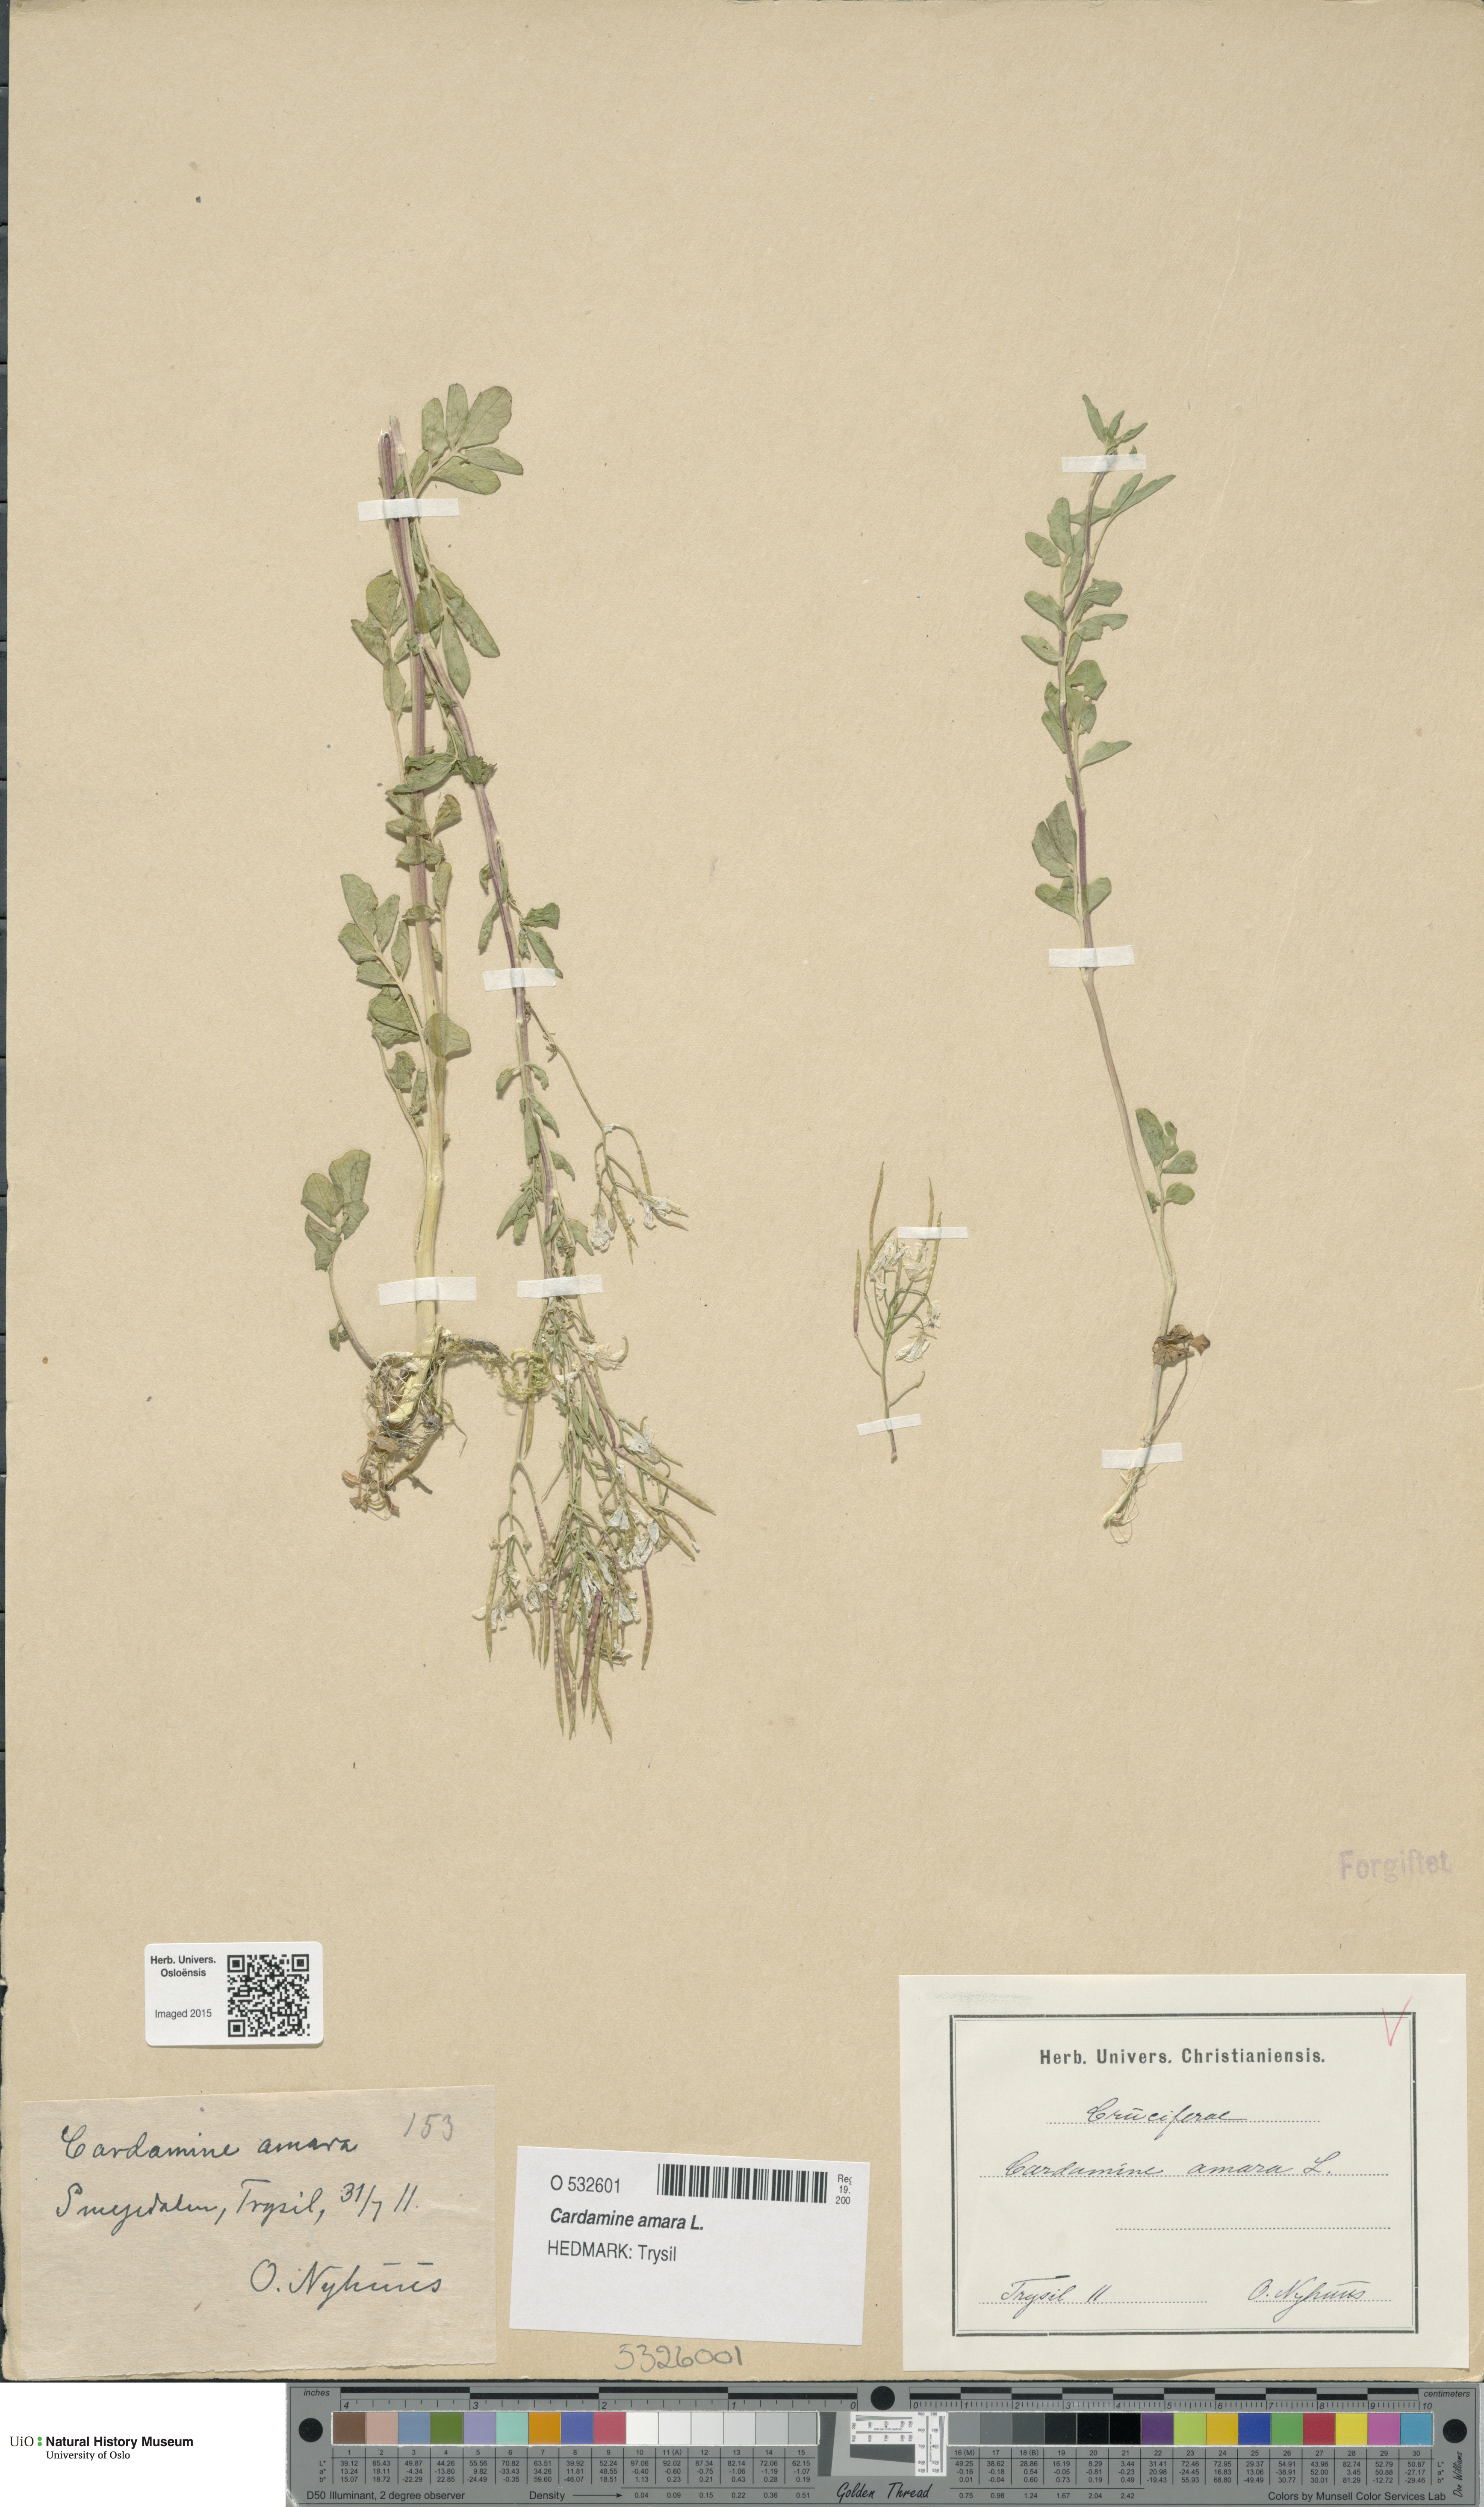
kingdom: Plantae
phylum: Tracheophyta
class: Magnoliopsida
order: Brassicales
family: Brassicaceae
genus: Cardamine
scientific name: Cardamine amara
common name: Large bitter-cress
